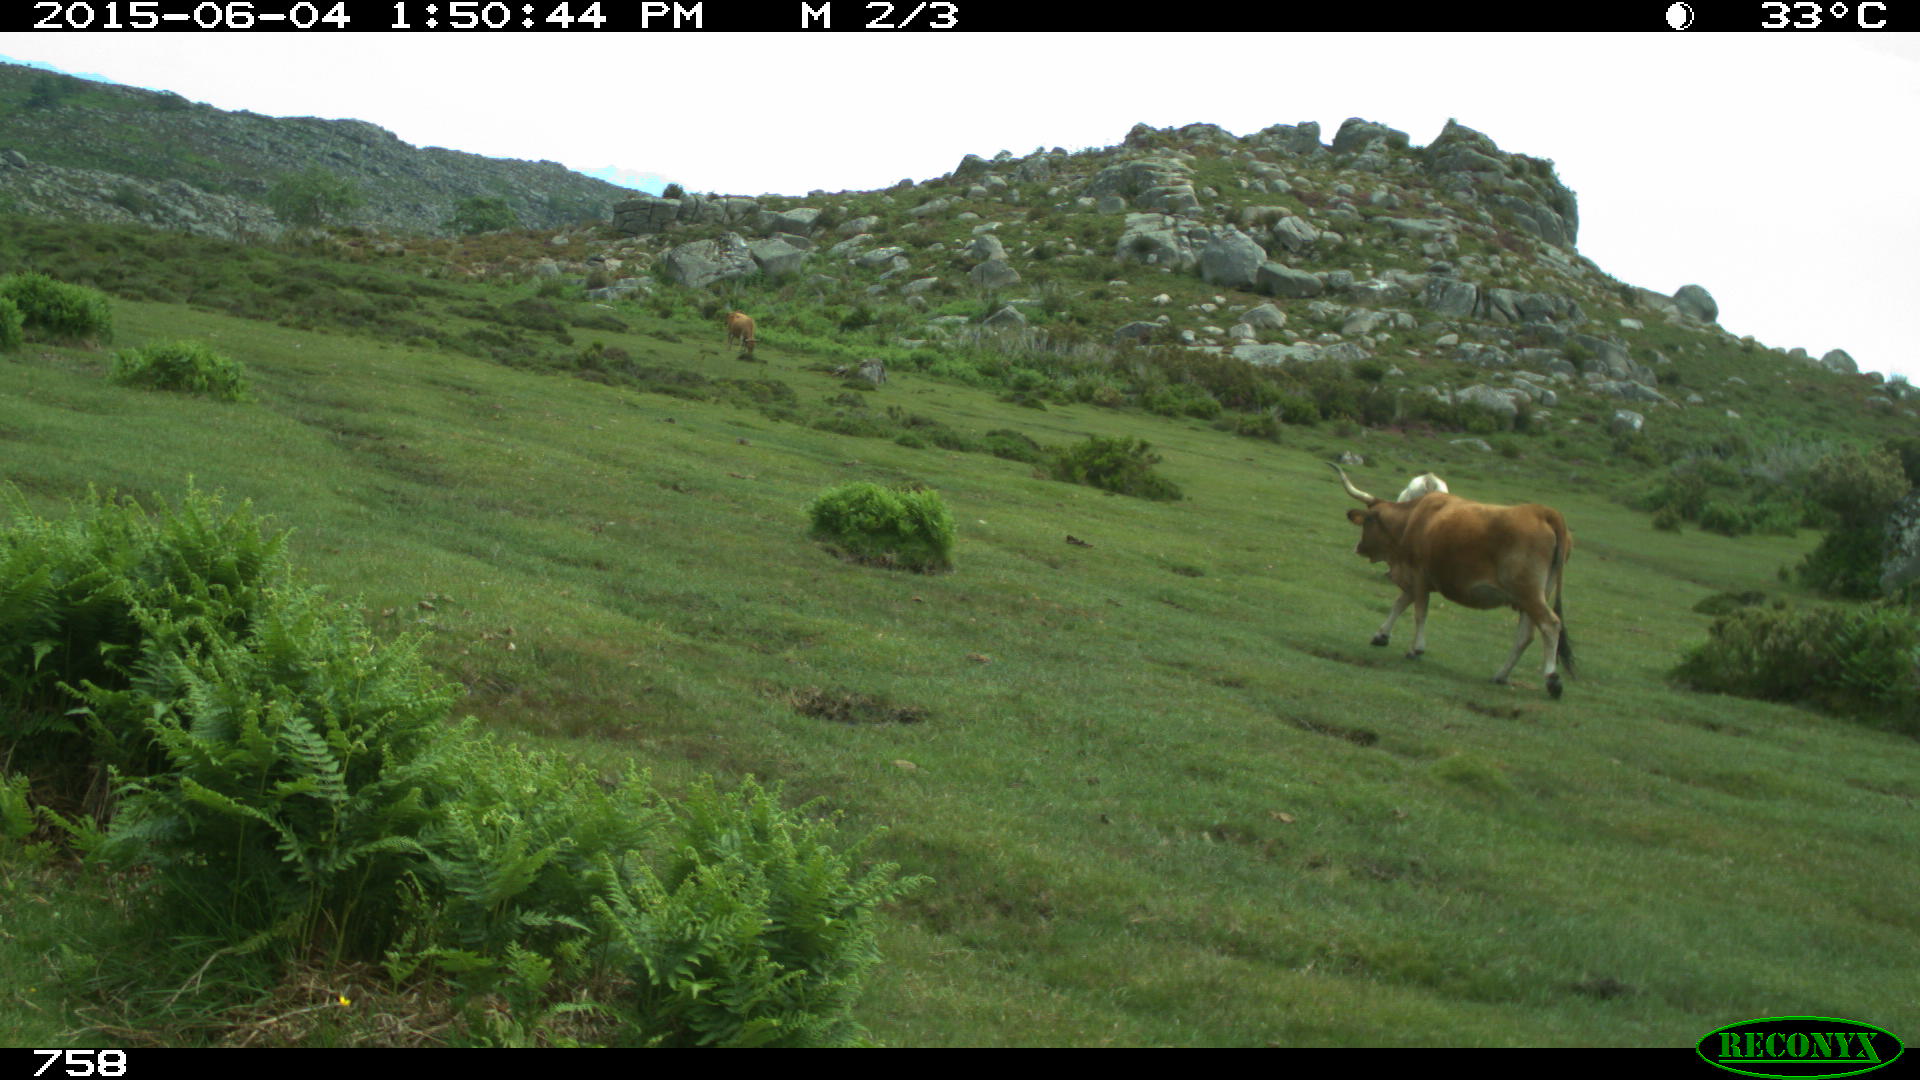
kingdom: Animalia
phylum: Chordata
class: Mammalia
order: Artiodactyla
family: Bovidae
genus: Bos
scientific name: Bos taurus
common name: Domesticated cattle
